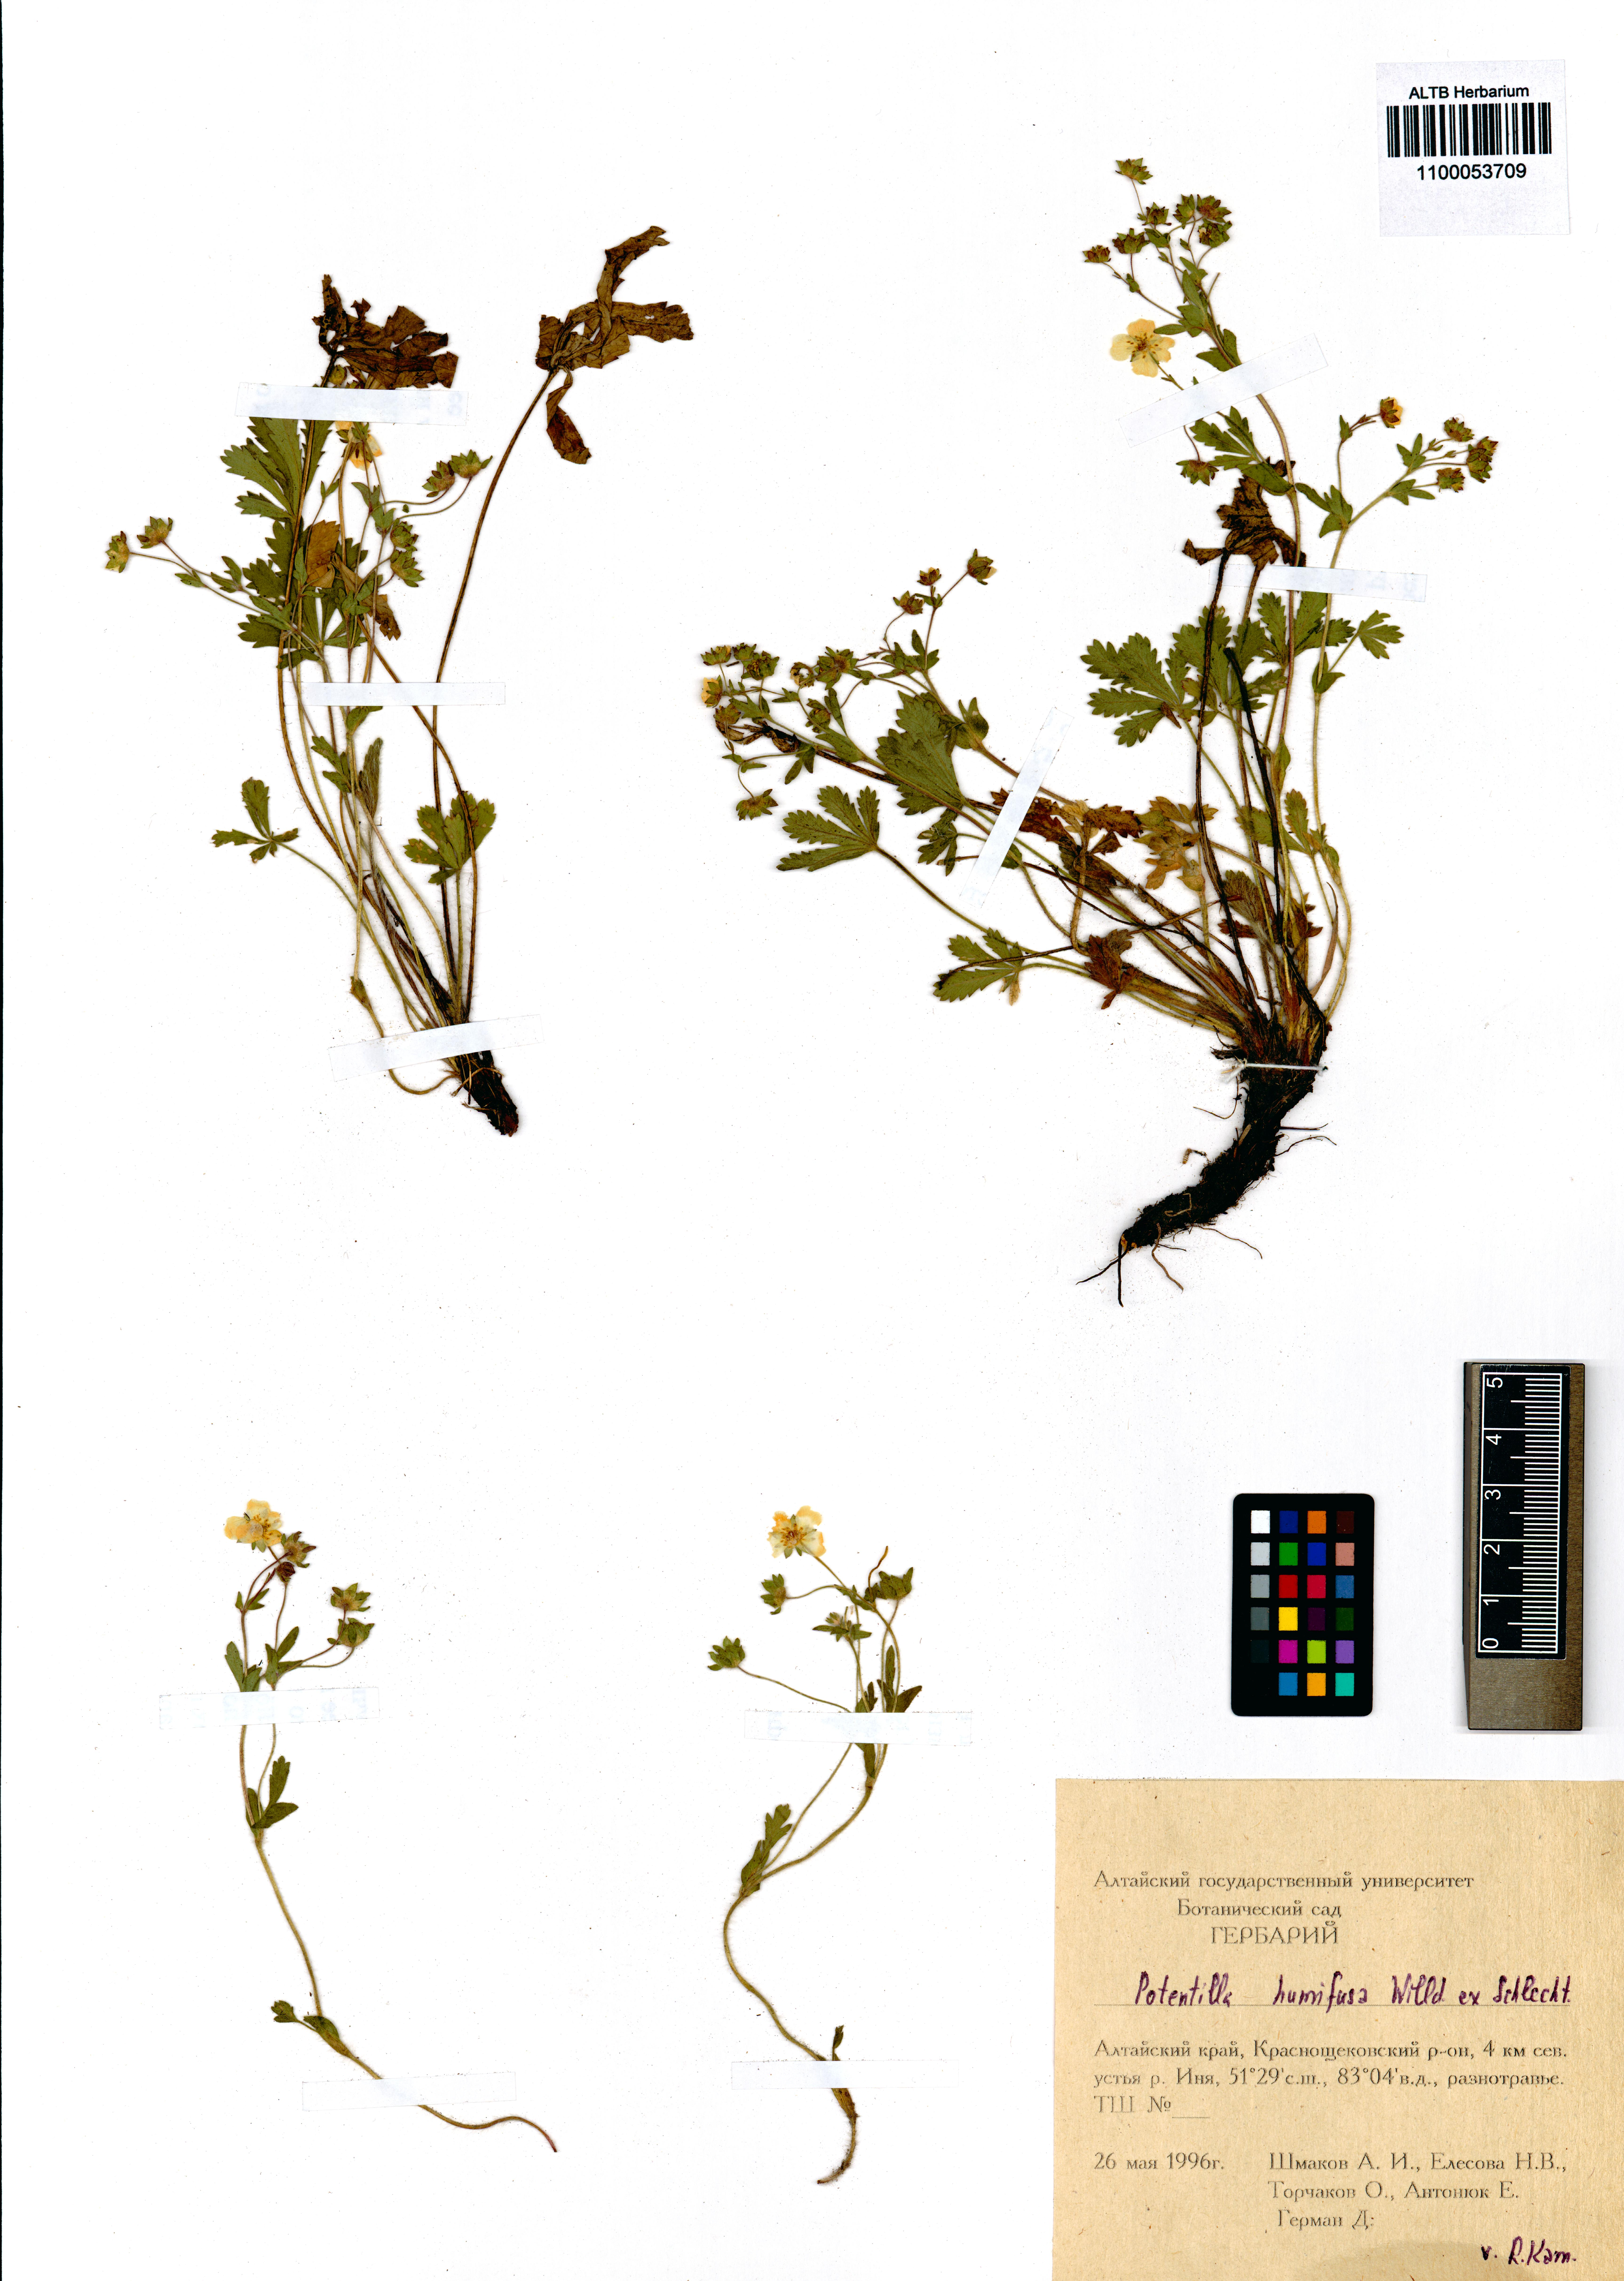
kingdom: Plantae
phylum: Tracheophyta
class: Magnoliopsida
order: Rosales
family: Rosaceae
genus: Potentilla
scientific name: Potentilla humifusa
